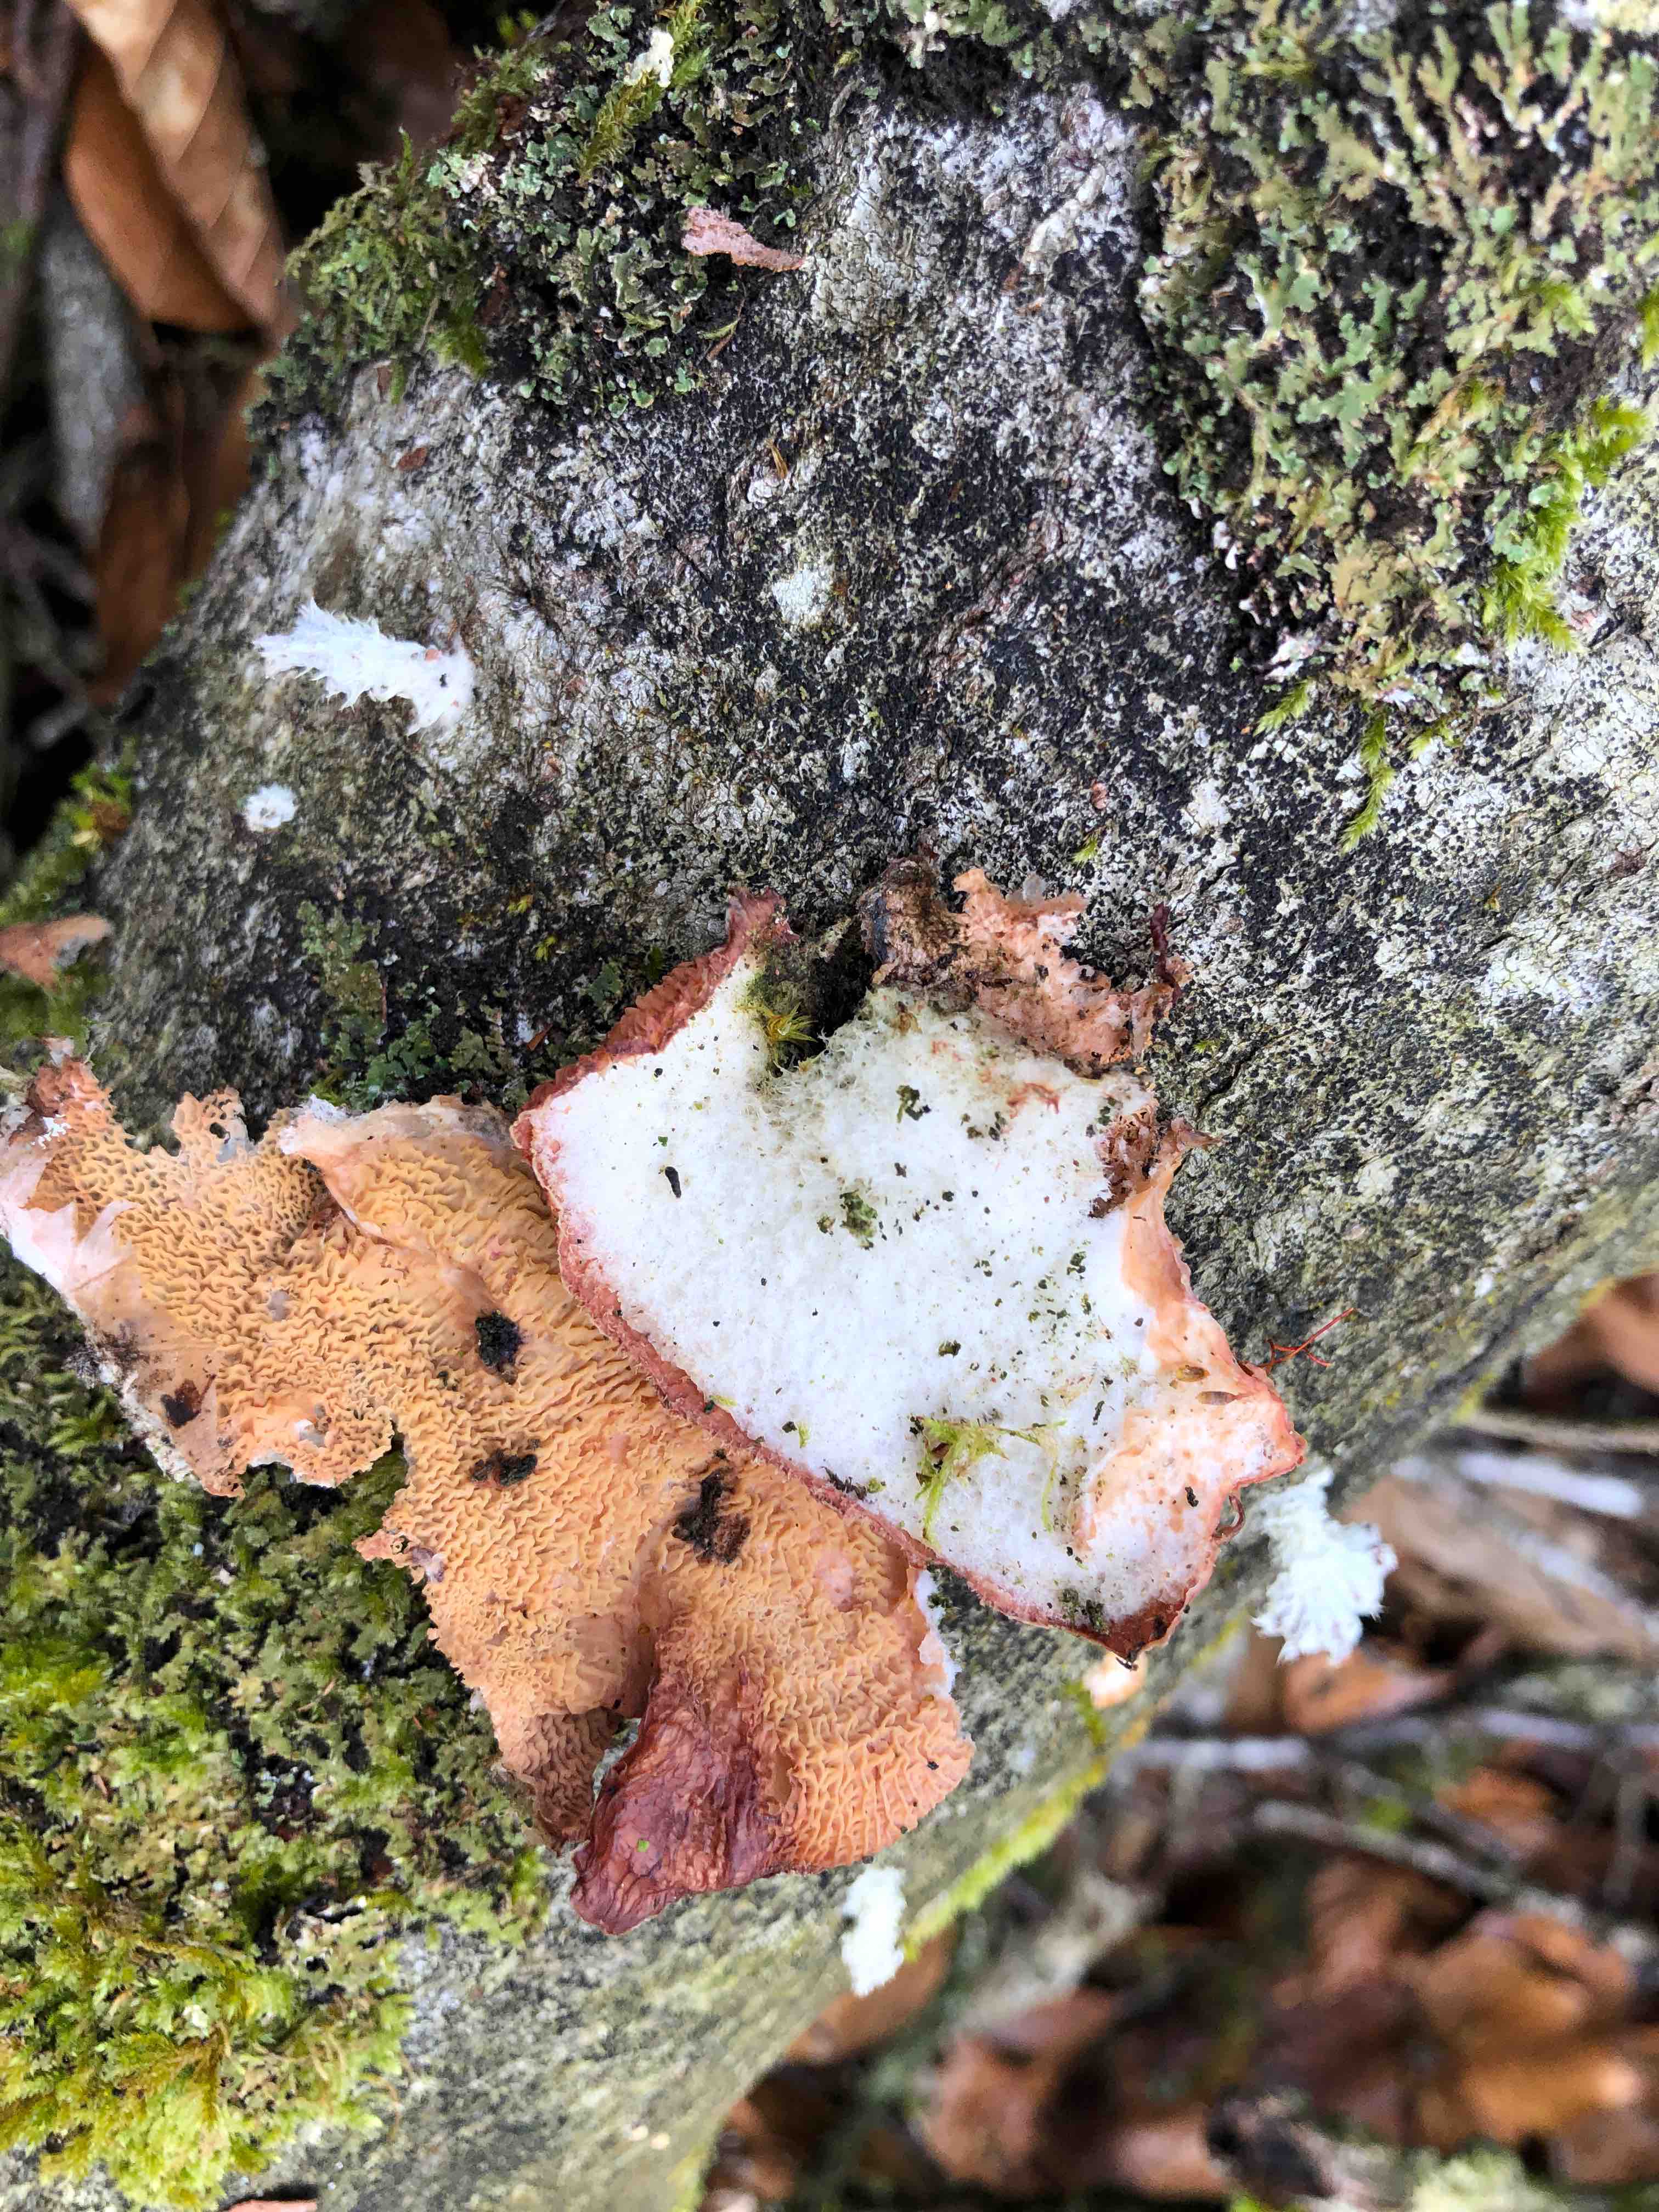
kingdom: Fungi
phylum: Basidiomycota
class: Agaricomycetes
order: Polyporales
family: Meruliaceae
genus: Phlebia
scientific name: Phlebia tremellosa
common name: bævrende åresvamp
